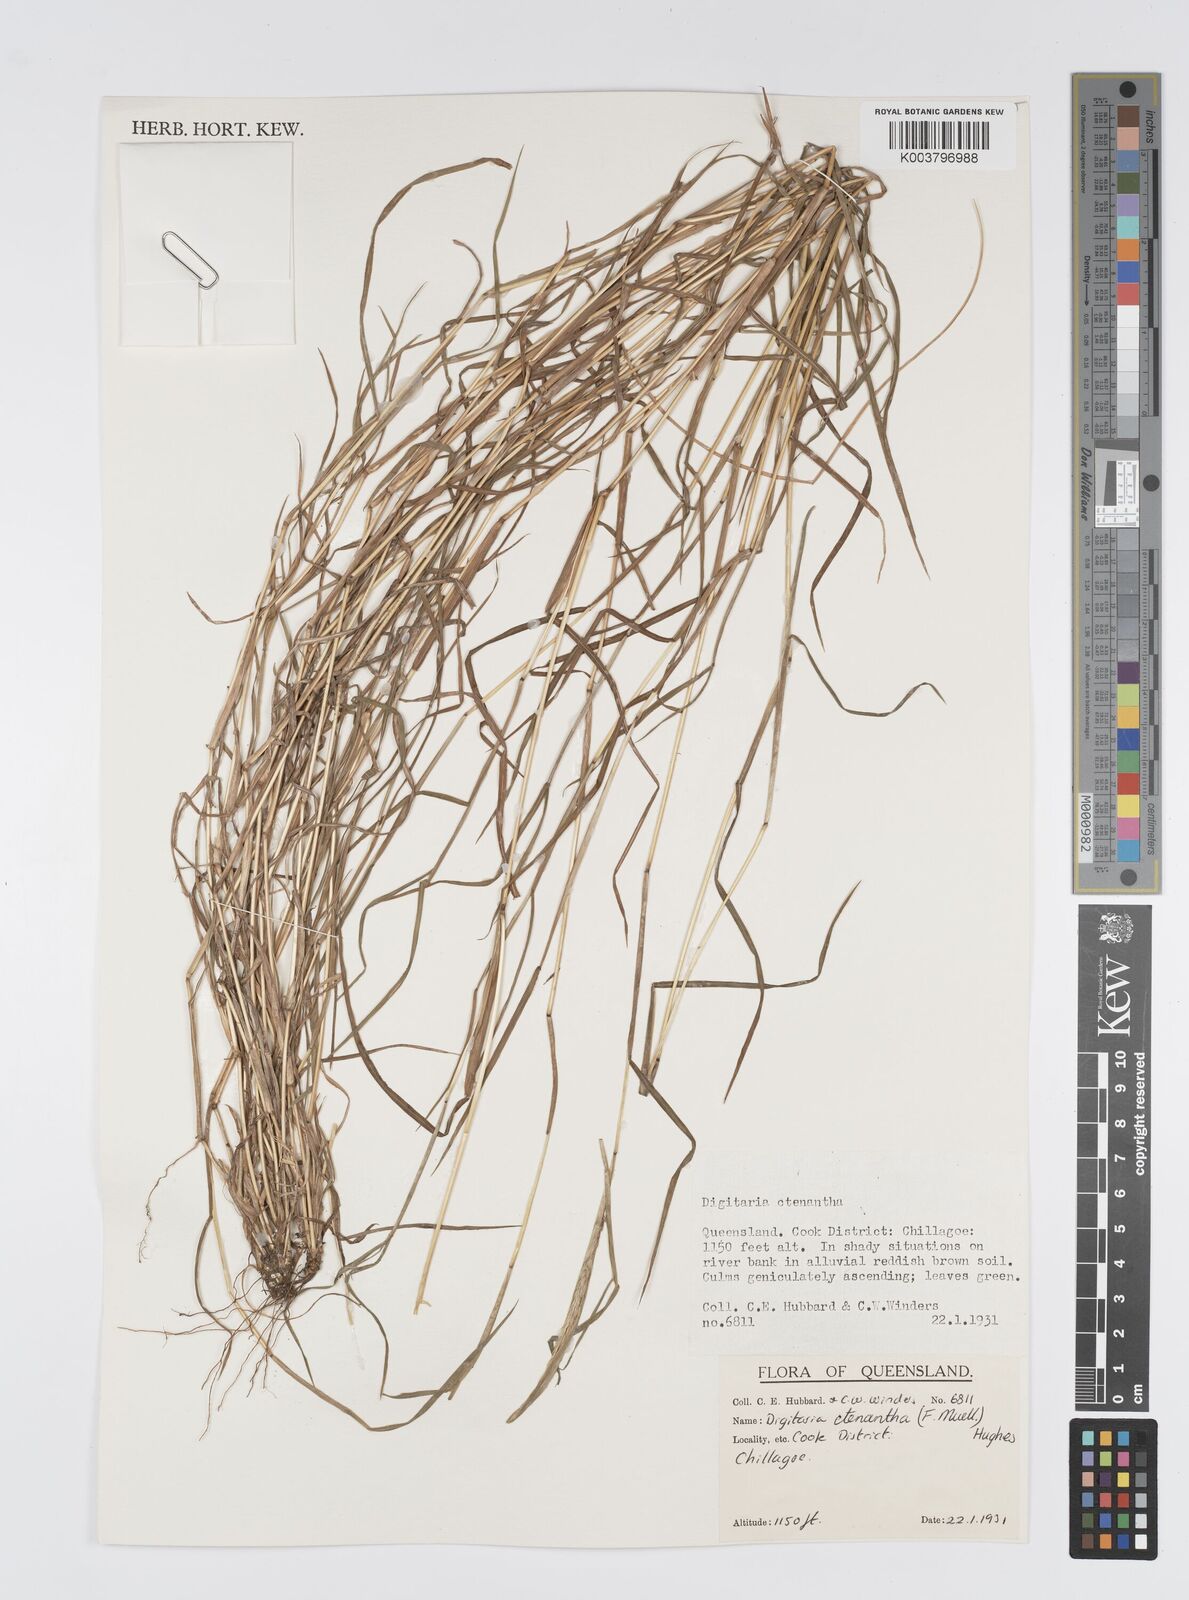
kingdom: Plantae
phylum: Tracheophyta
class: Liliopsida
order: Poales
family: Poaceae
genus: Digitaria
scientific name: Digitaria ctenantha
